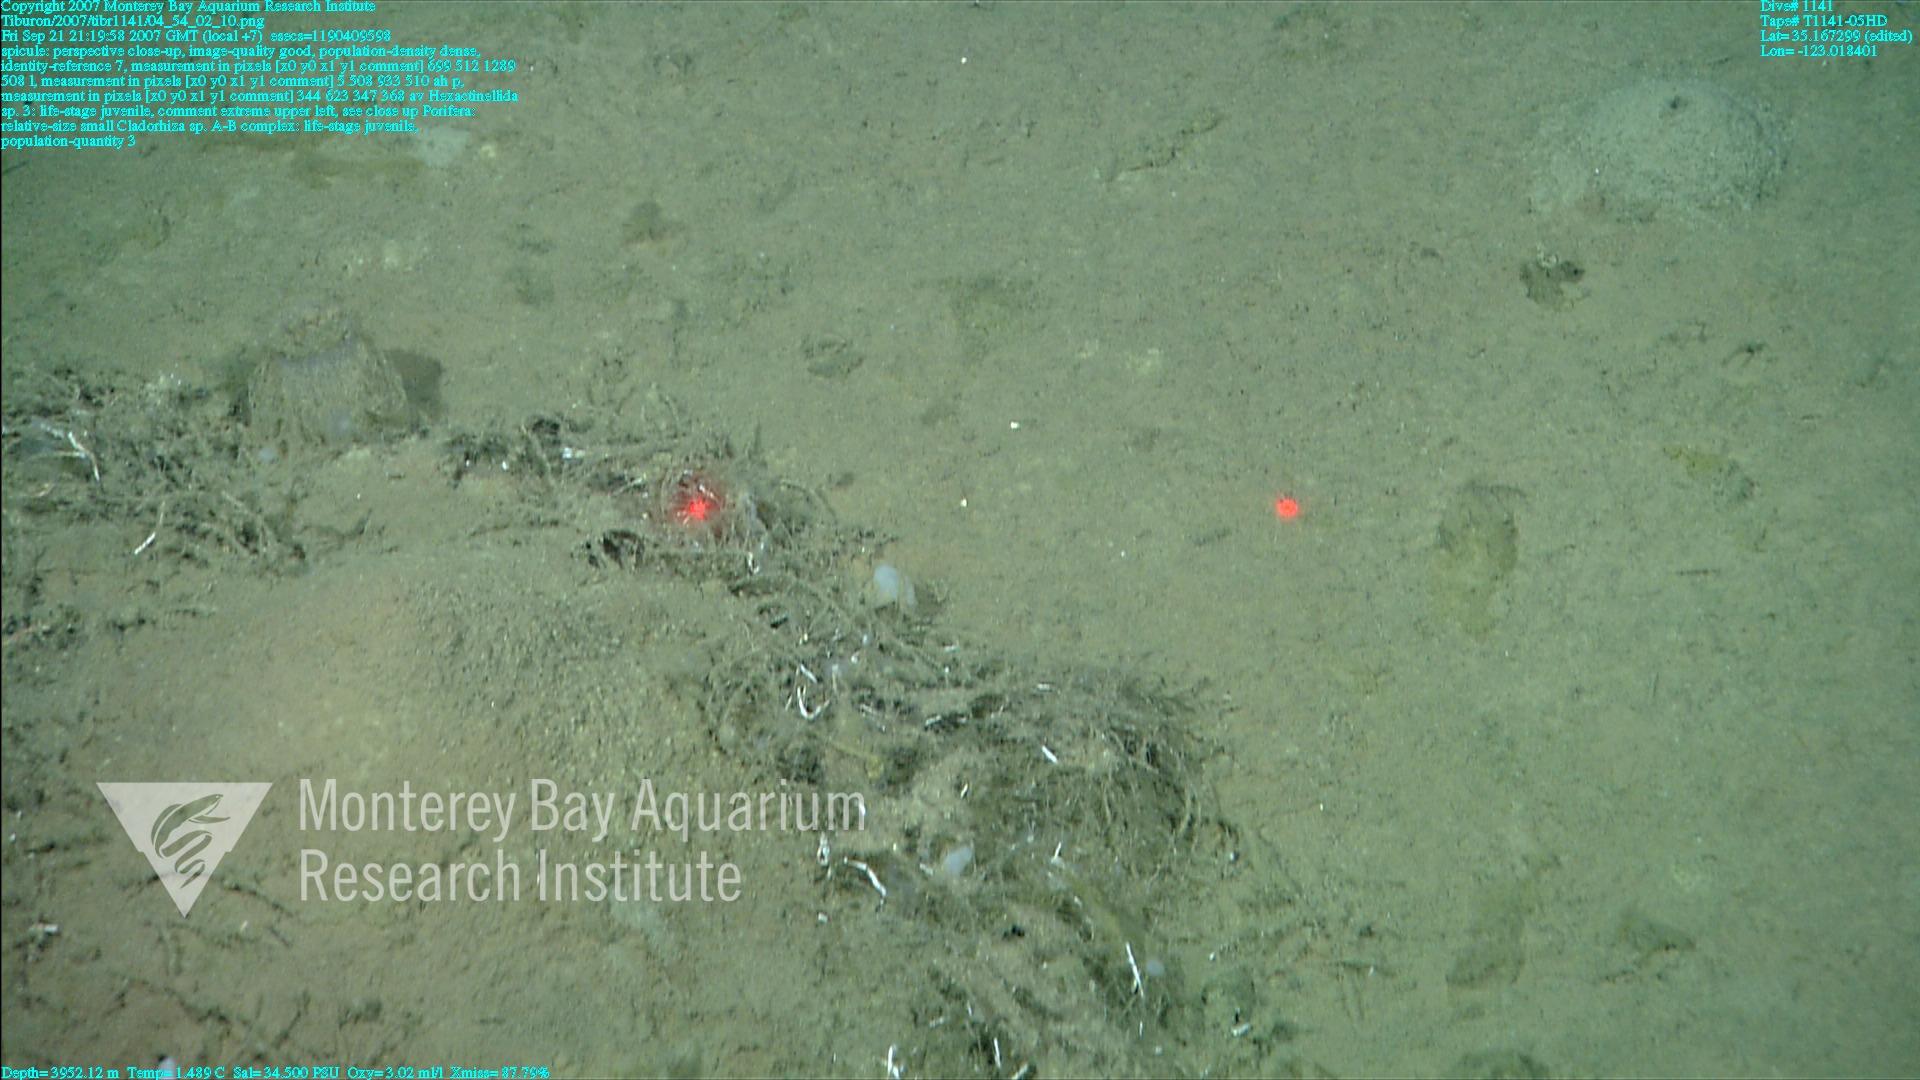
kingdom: Animalia
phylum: Porifera
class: Demospongiae
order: Poecilosclerida
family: Cladorhizidae
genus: Cladorhiza
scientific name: Cladorhiza
